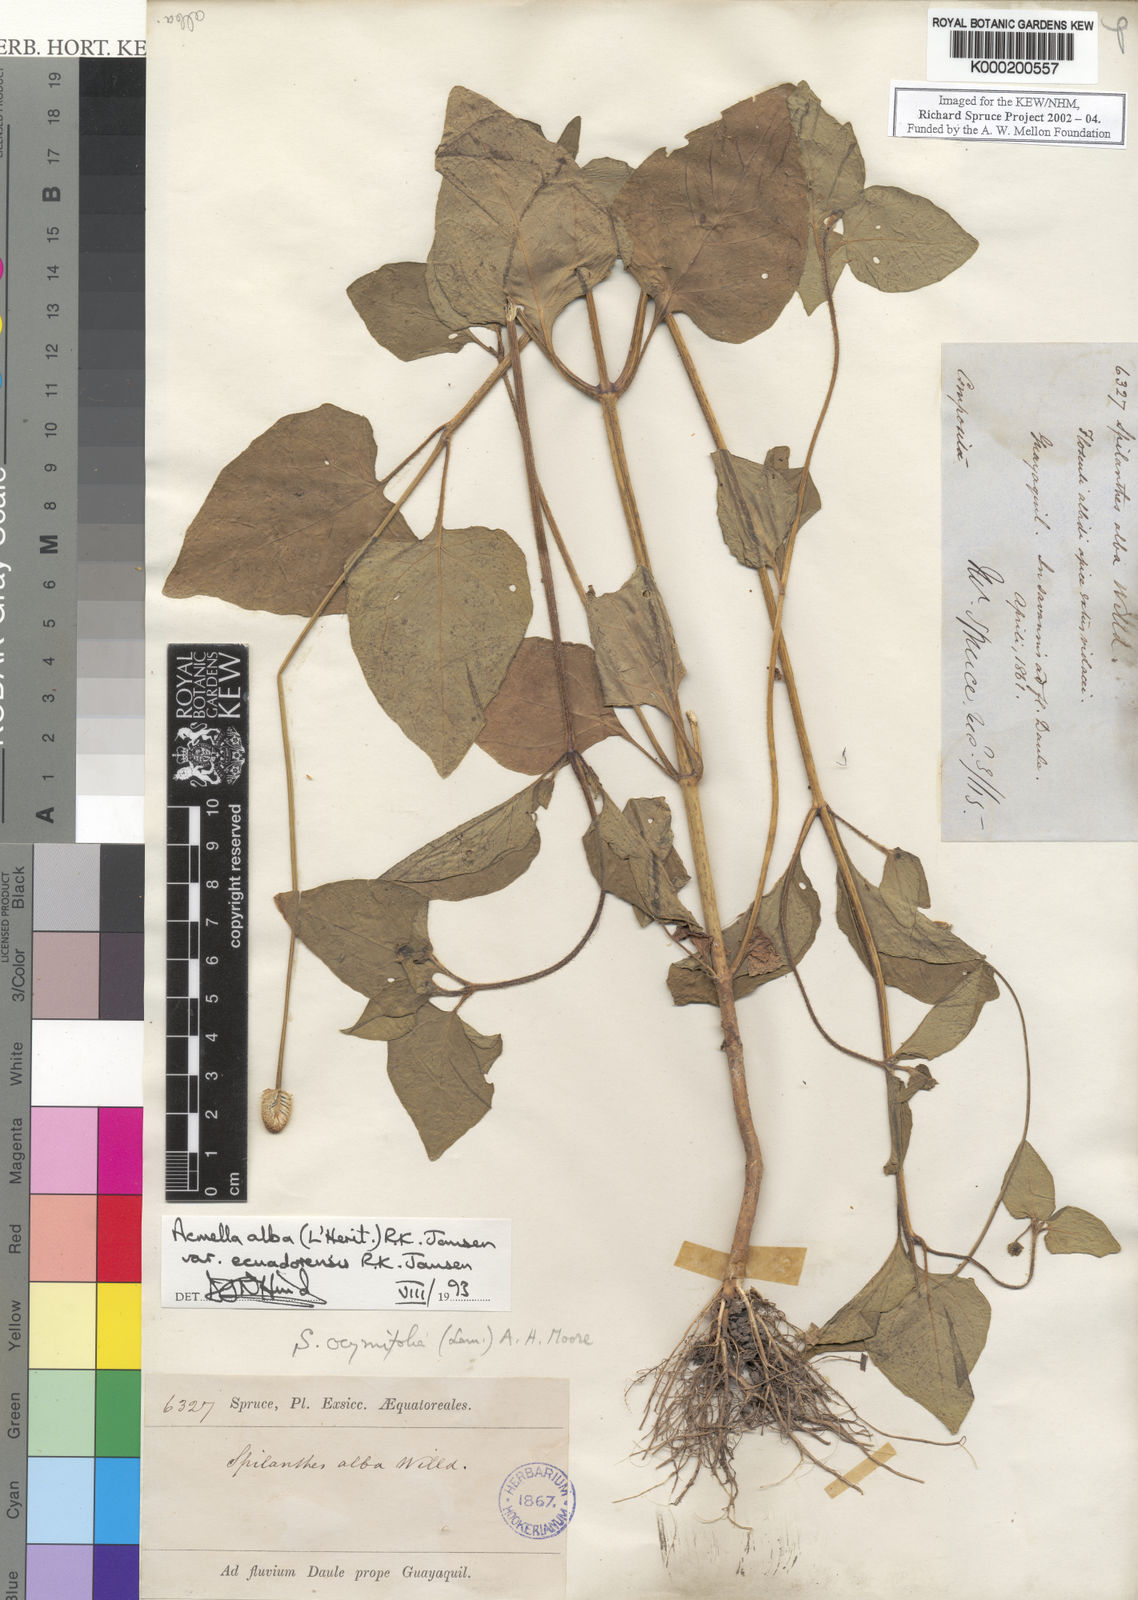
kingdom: Plantae
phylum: Tracheophyta
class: Magnoliopsida
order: Asterales
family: Asteraceae
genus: Acmella
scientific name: Acmella
